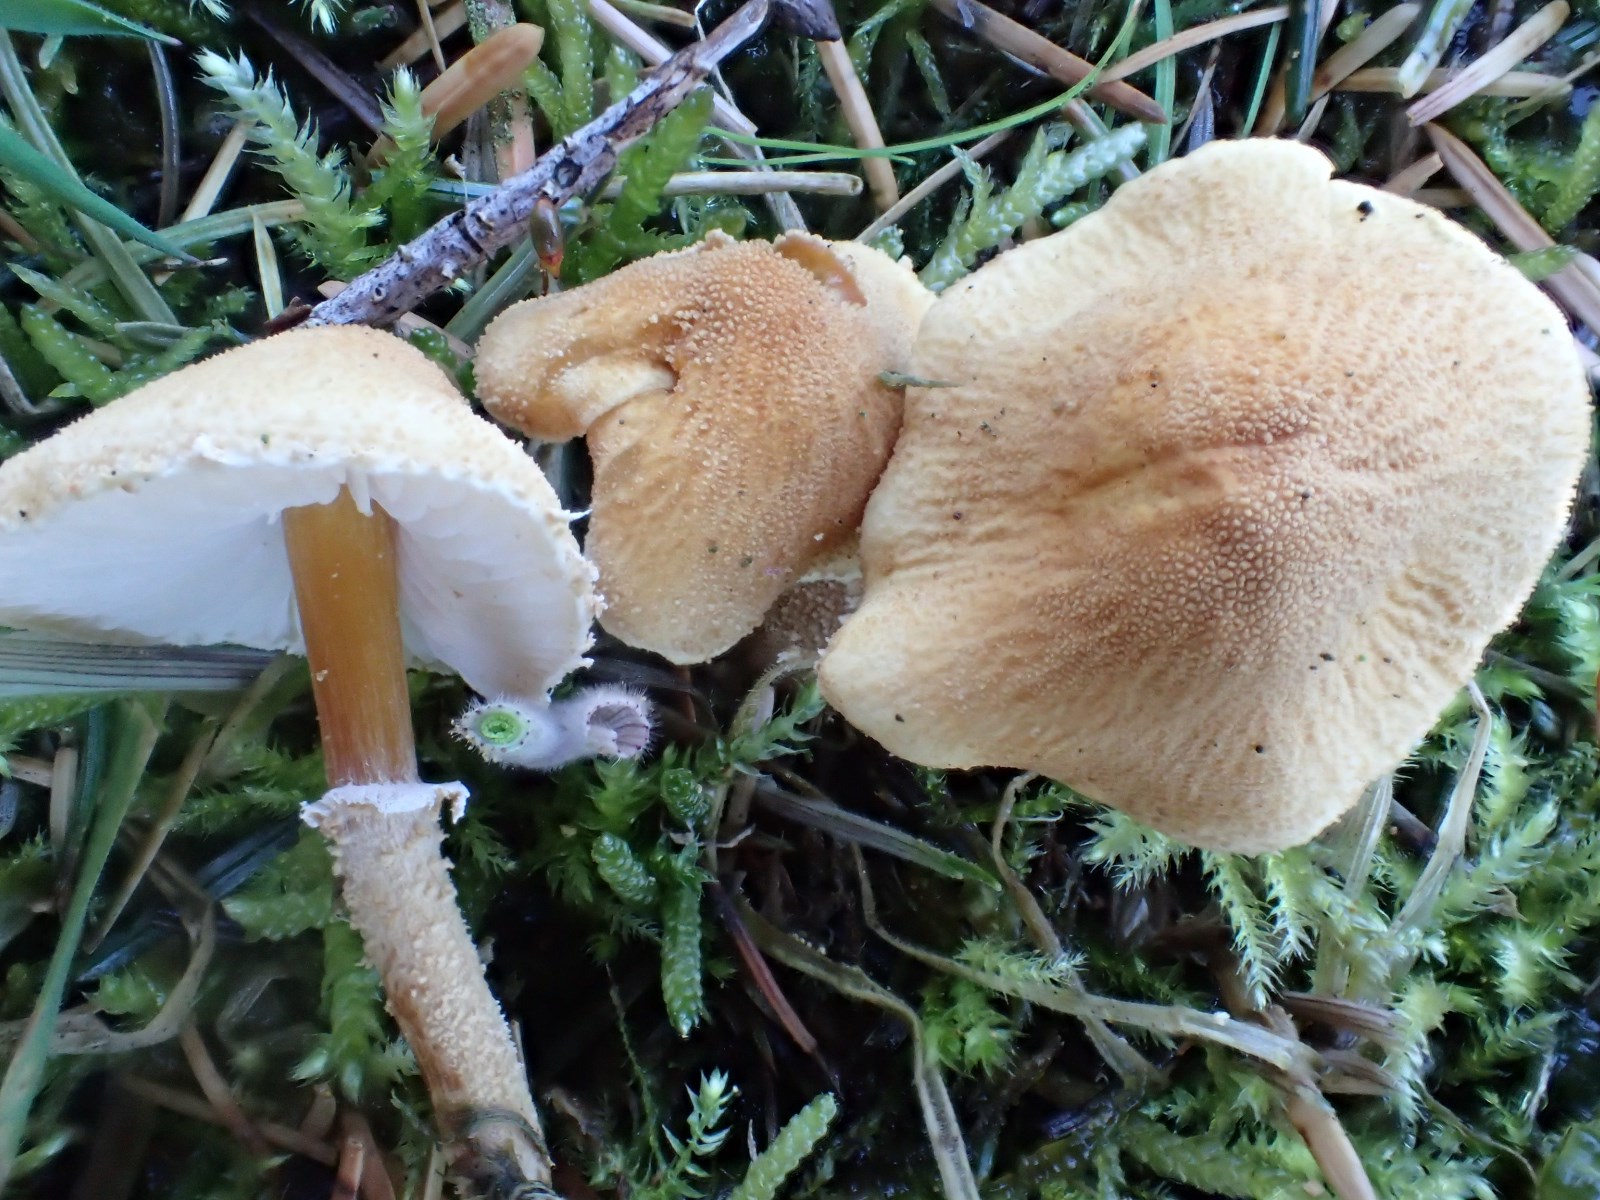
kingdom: Fungi
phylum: Basidiomycota
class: Agaricomycetes
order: Agaricales
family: Tricholomataceae
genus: Cystoderma
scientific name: Cystoderma amianthinum
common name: okkergul grynhat
